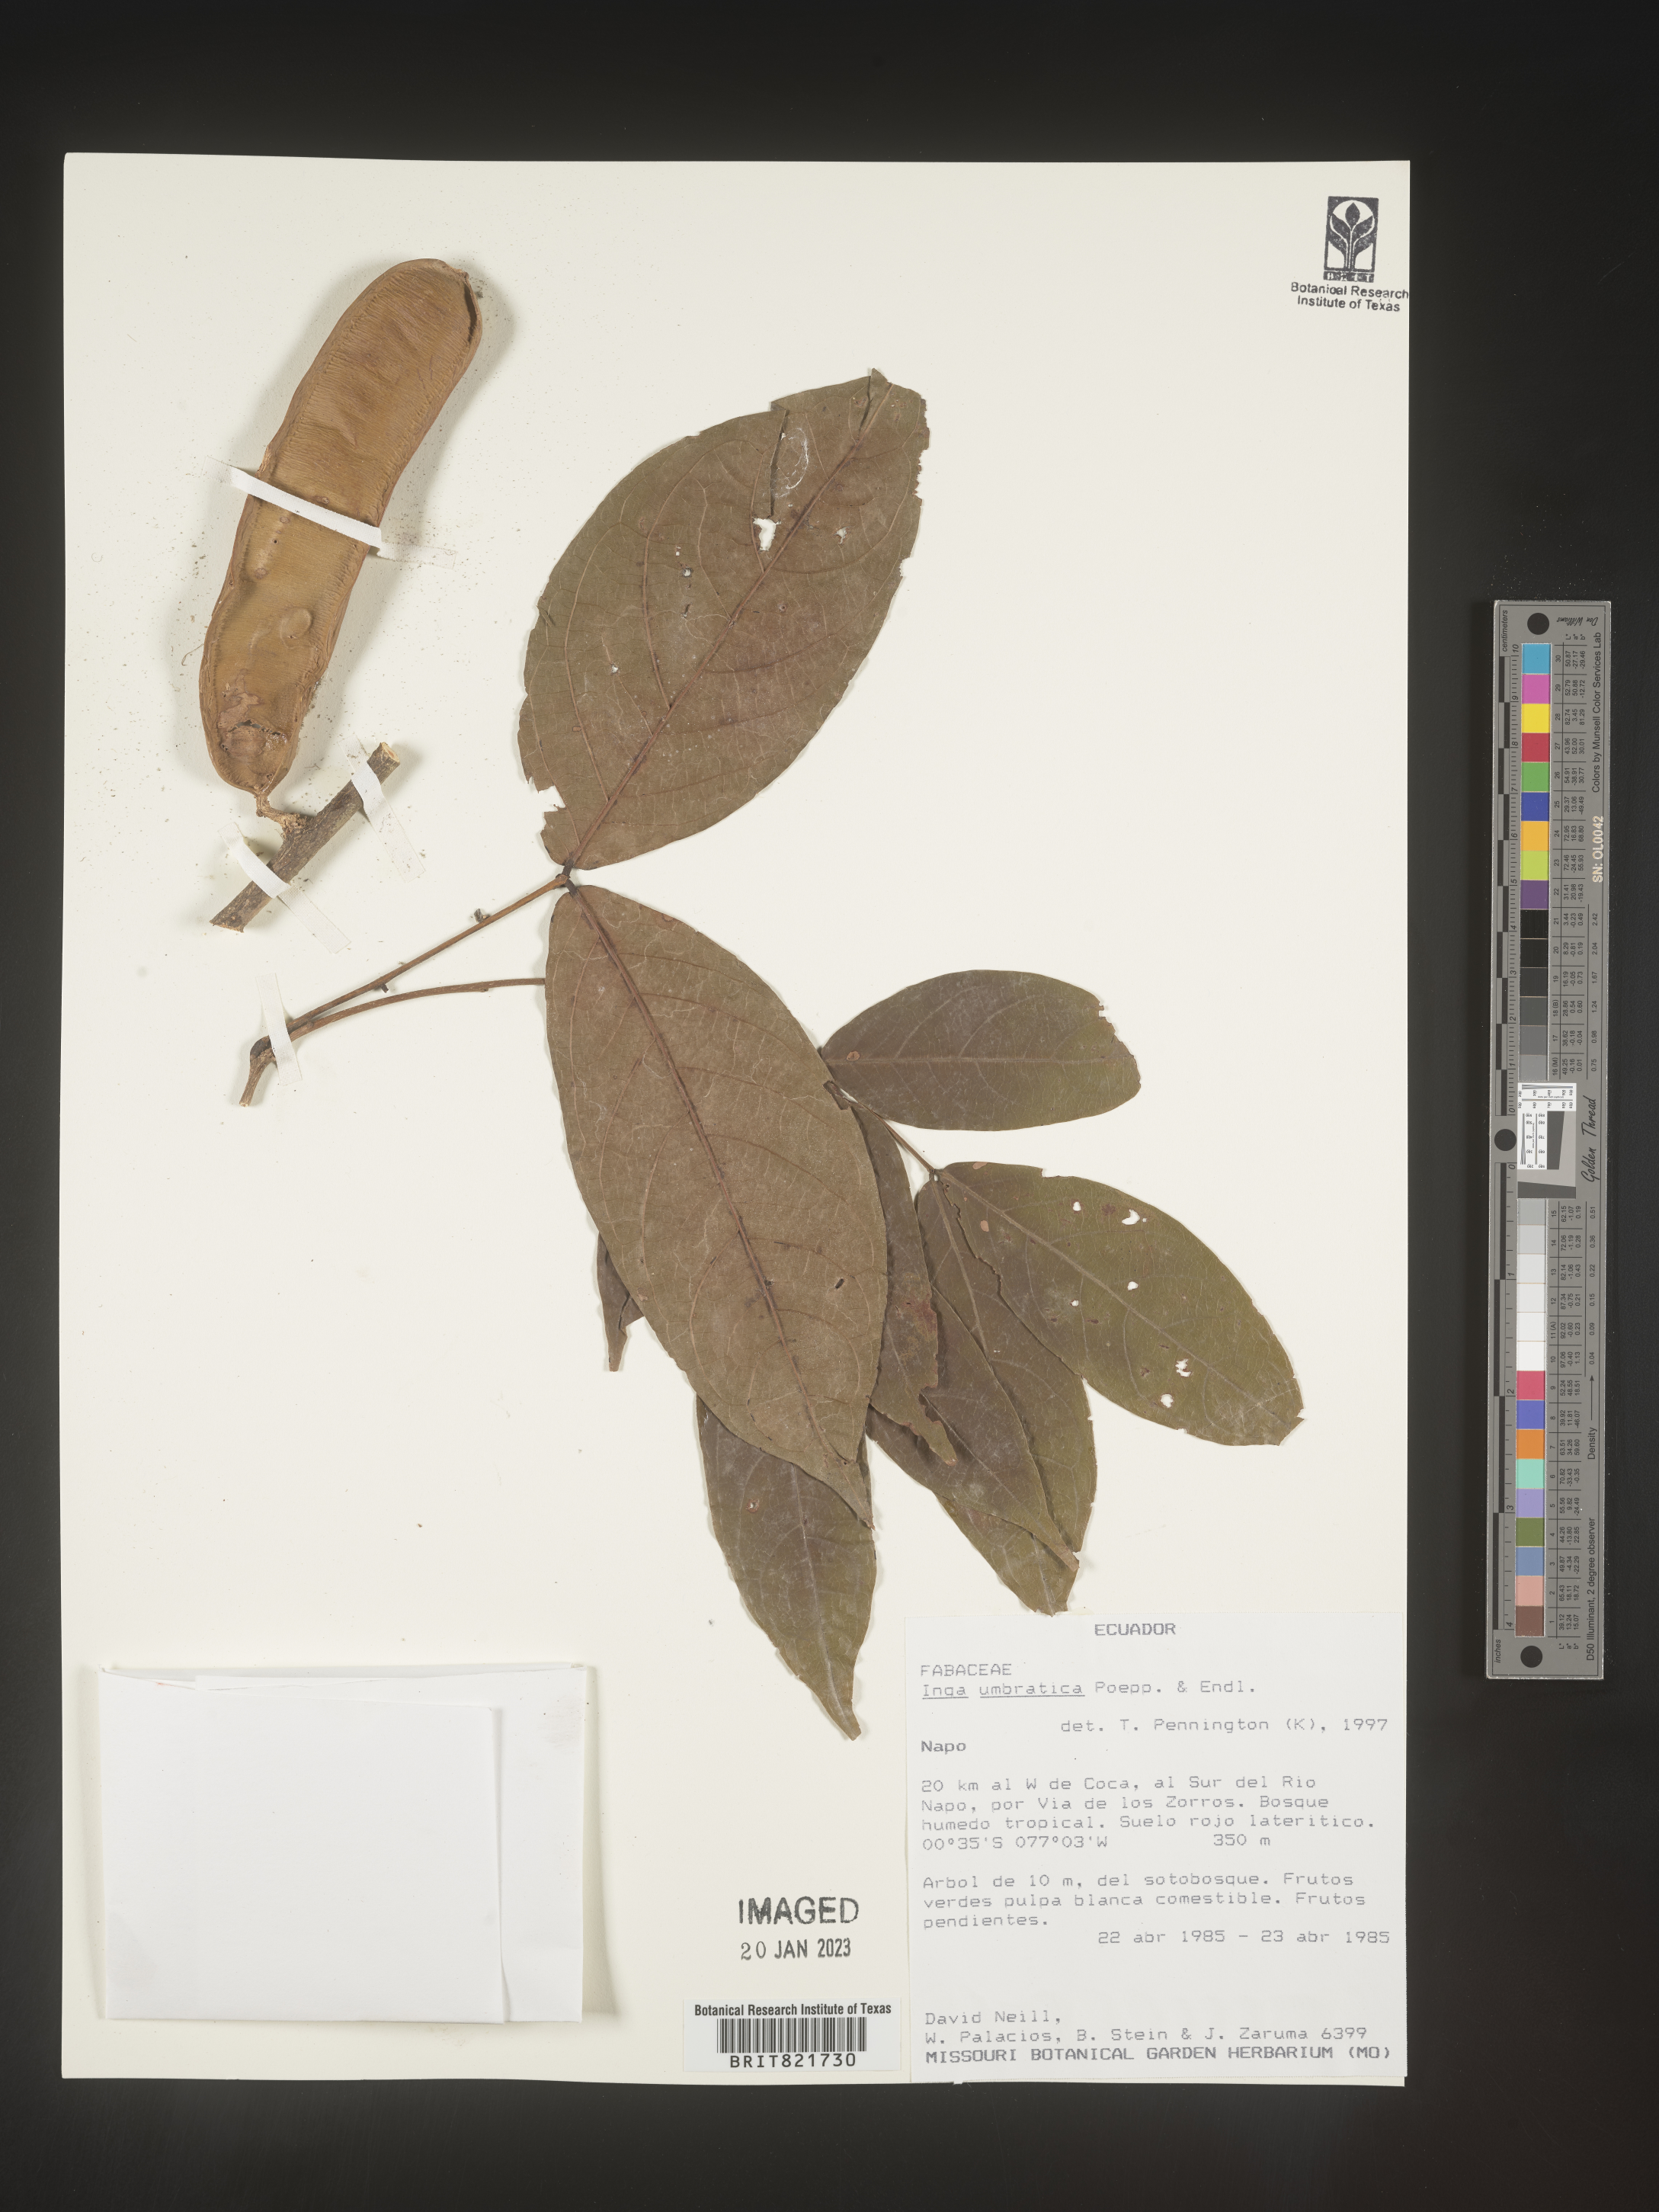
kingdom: Plantae
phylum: Tracheophyta
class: Magnoliopsida
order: Fabales
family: Fabaceae
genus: Inga
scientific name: Inga
